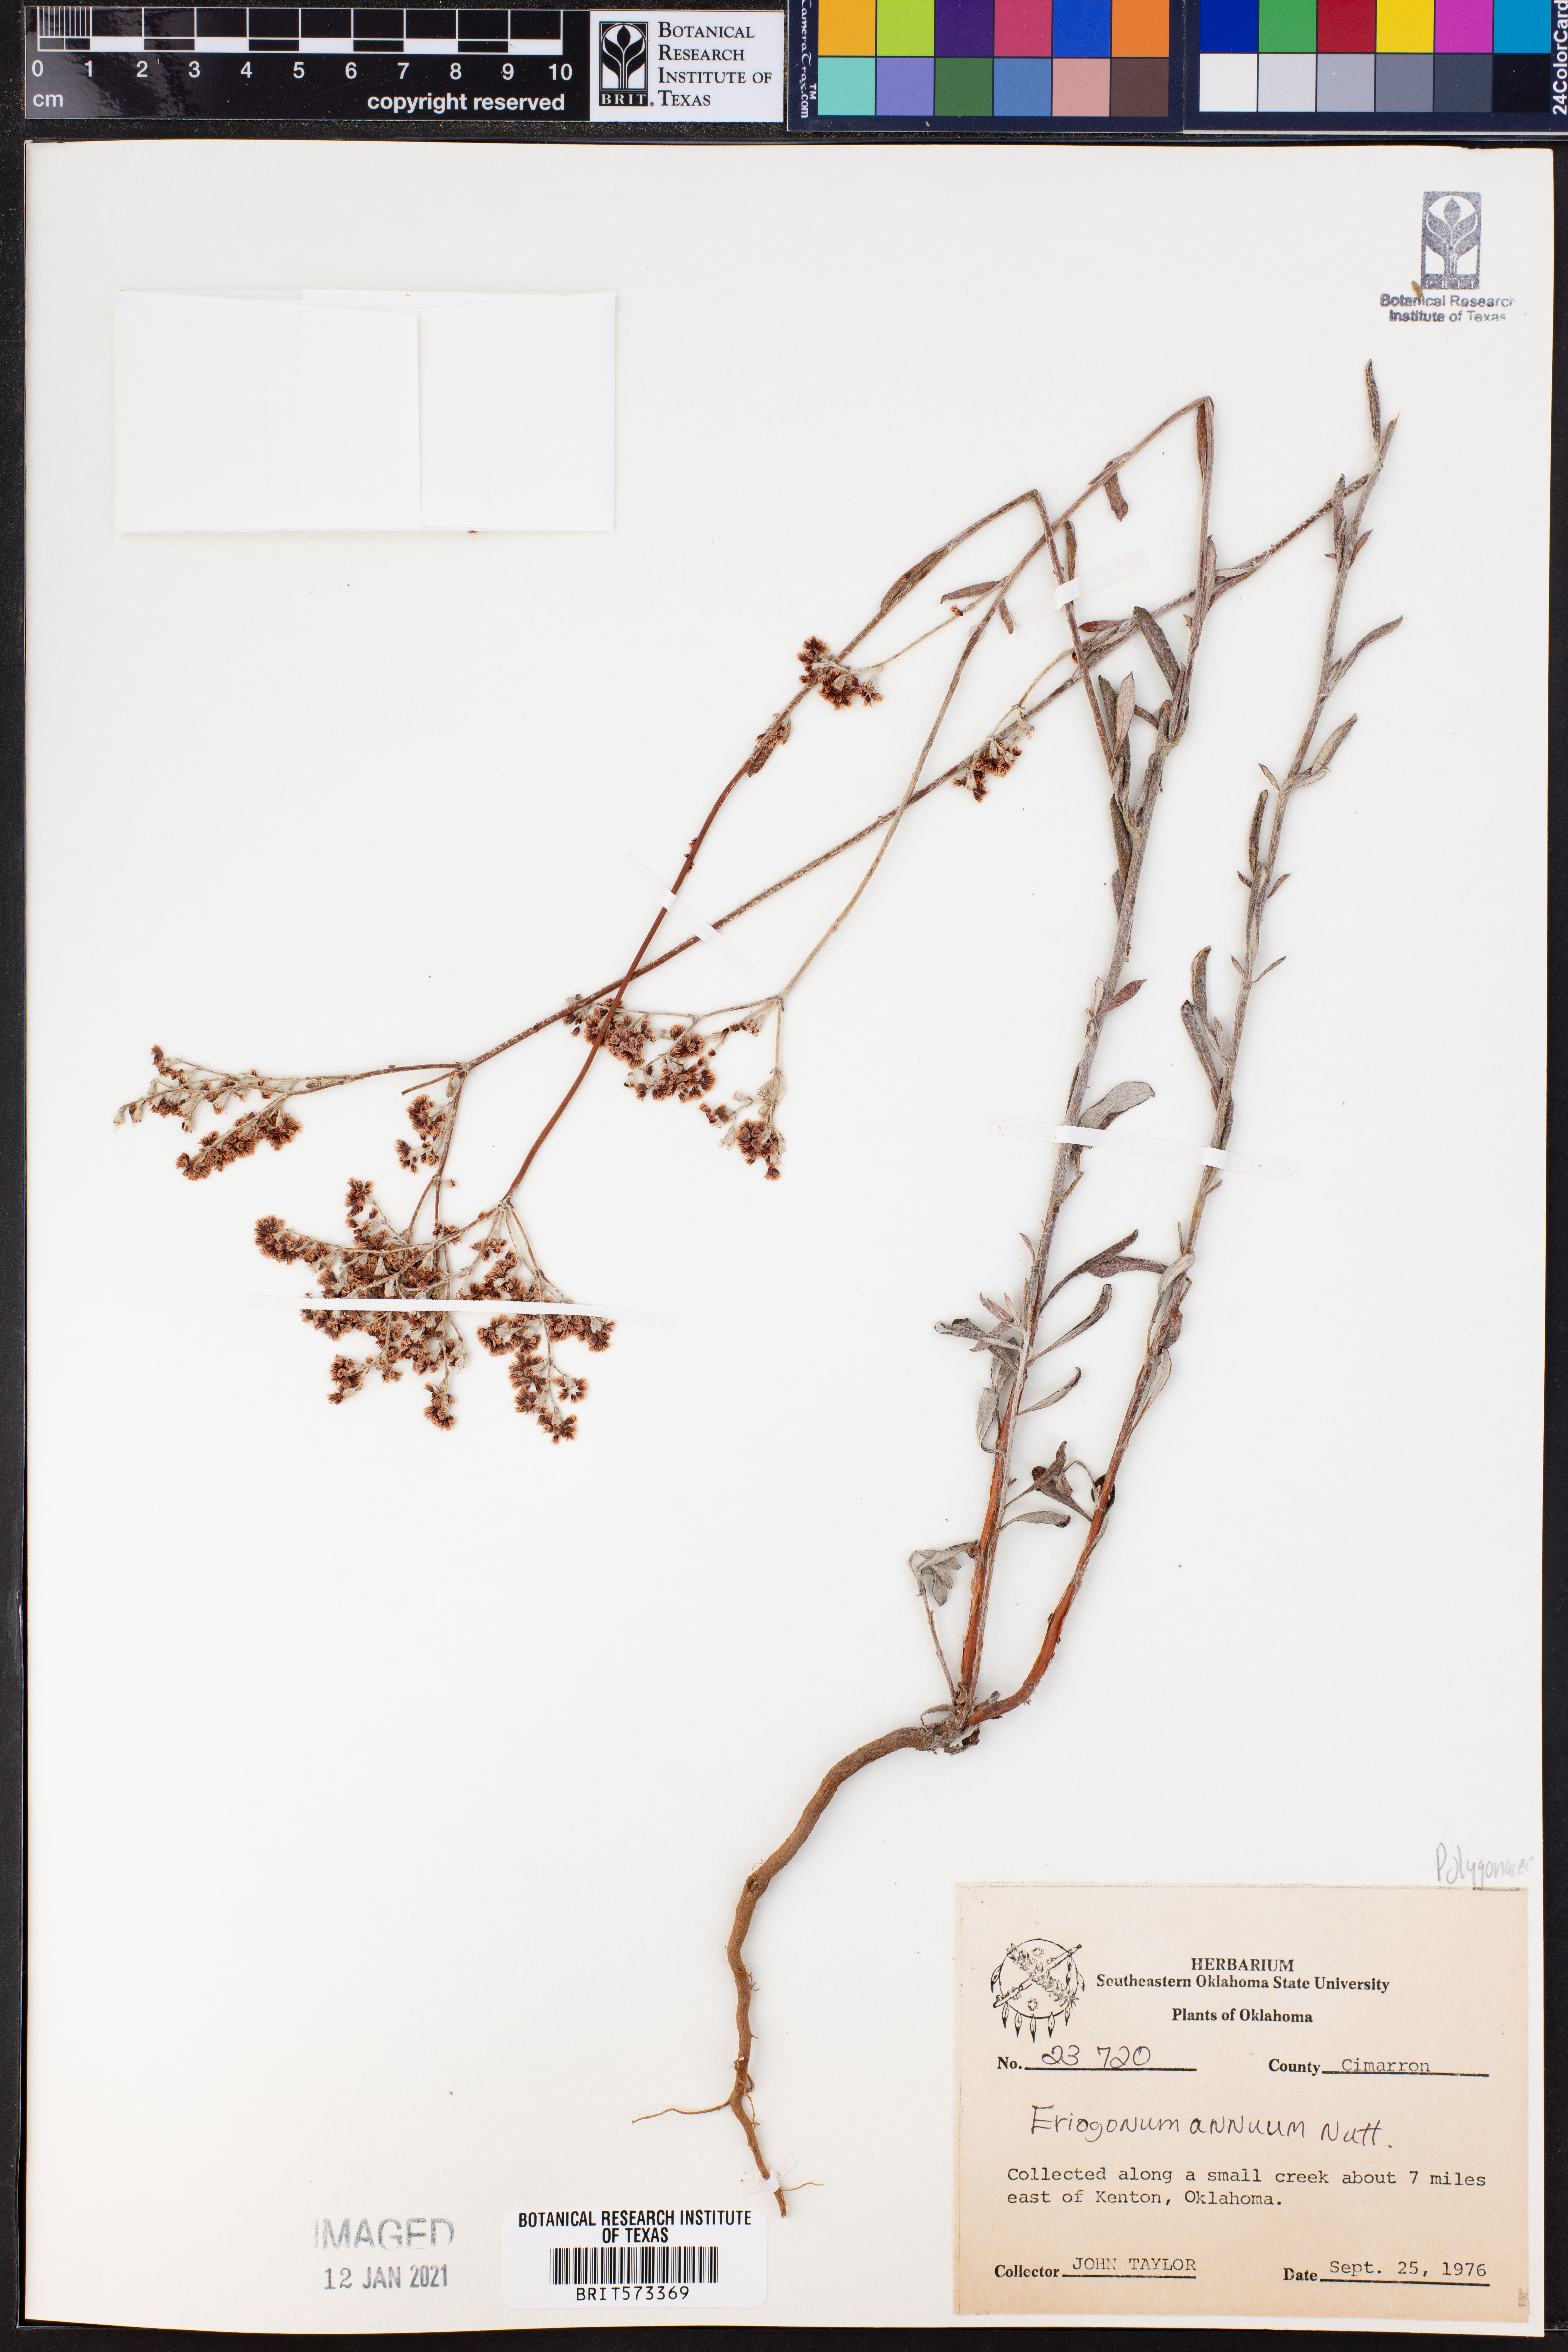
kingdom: Plantae
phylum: Tracheophyta
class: Magnoliopsida
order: Caryophyllales
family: Polygonaceae
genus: Eriogonum
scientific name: Eriogonum annuum
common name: Annual wild buckwheat
